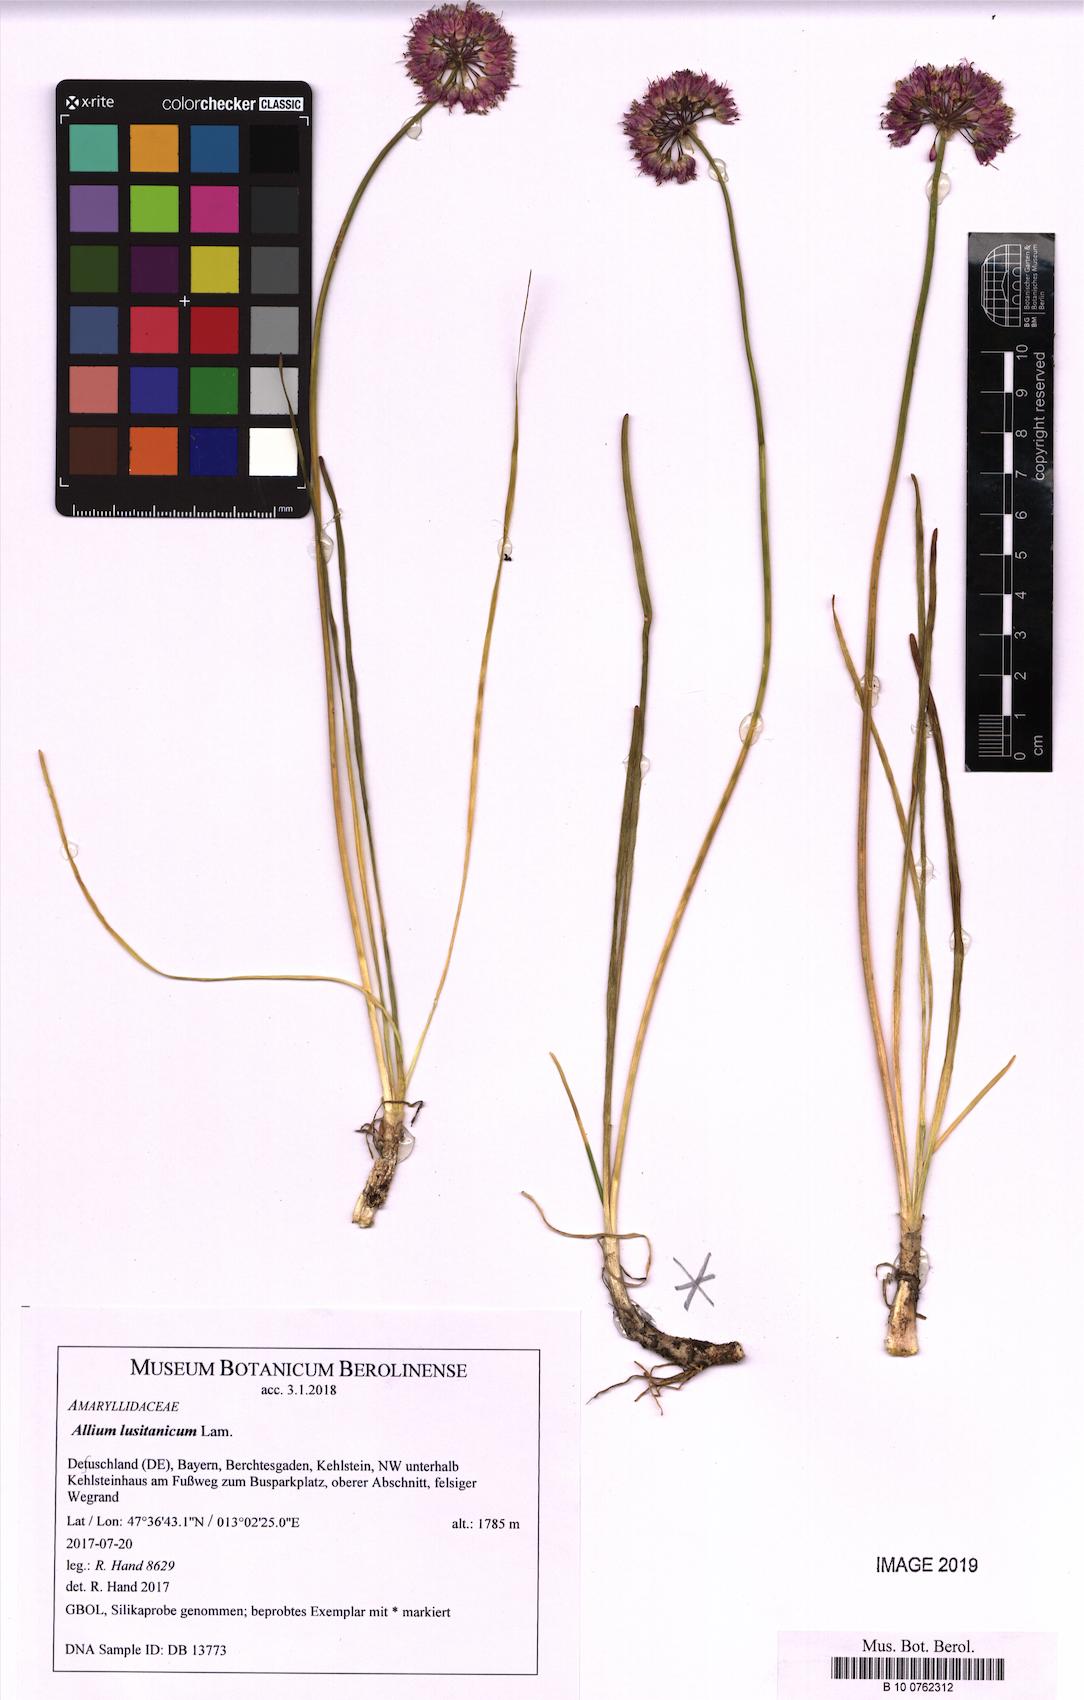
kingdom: Plantae
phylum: Tracheophyta
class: Liliopsida
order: Asparagales
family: Amaryllidaceae
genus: Allium
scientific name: Allium lusitanicum
